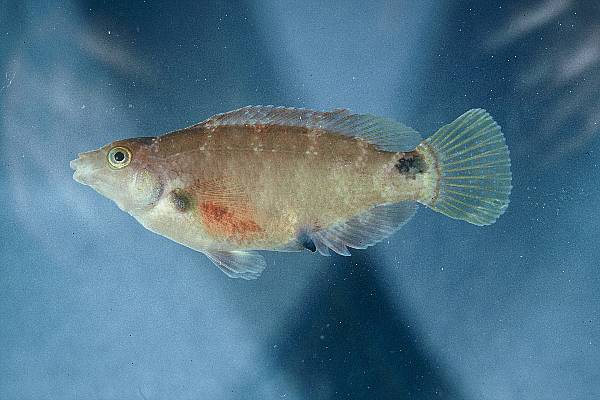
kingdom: Animalia
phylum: Chordata
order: Perciformes
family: Labridae
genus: Symphodus
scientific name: Symphodus mediterraneus
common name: Axillary wrasse
